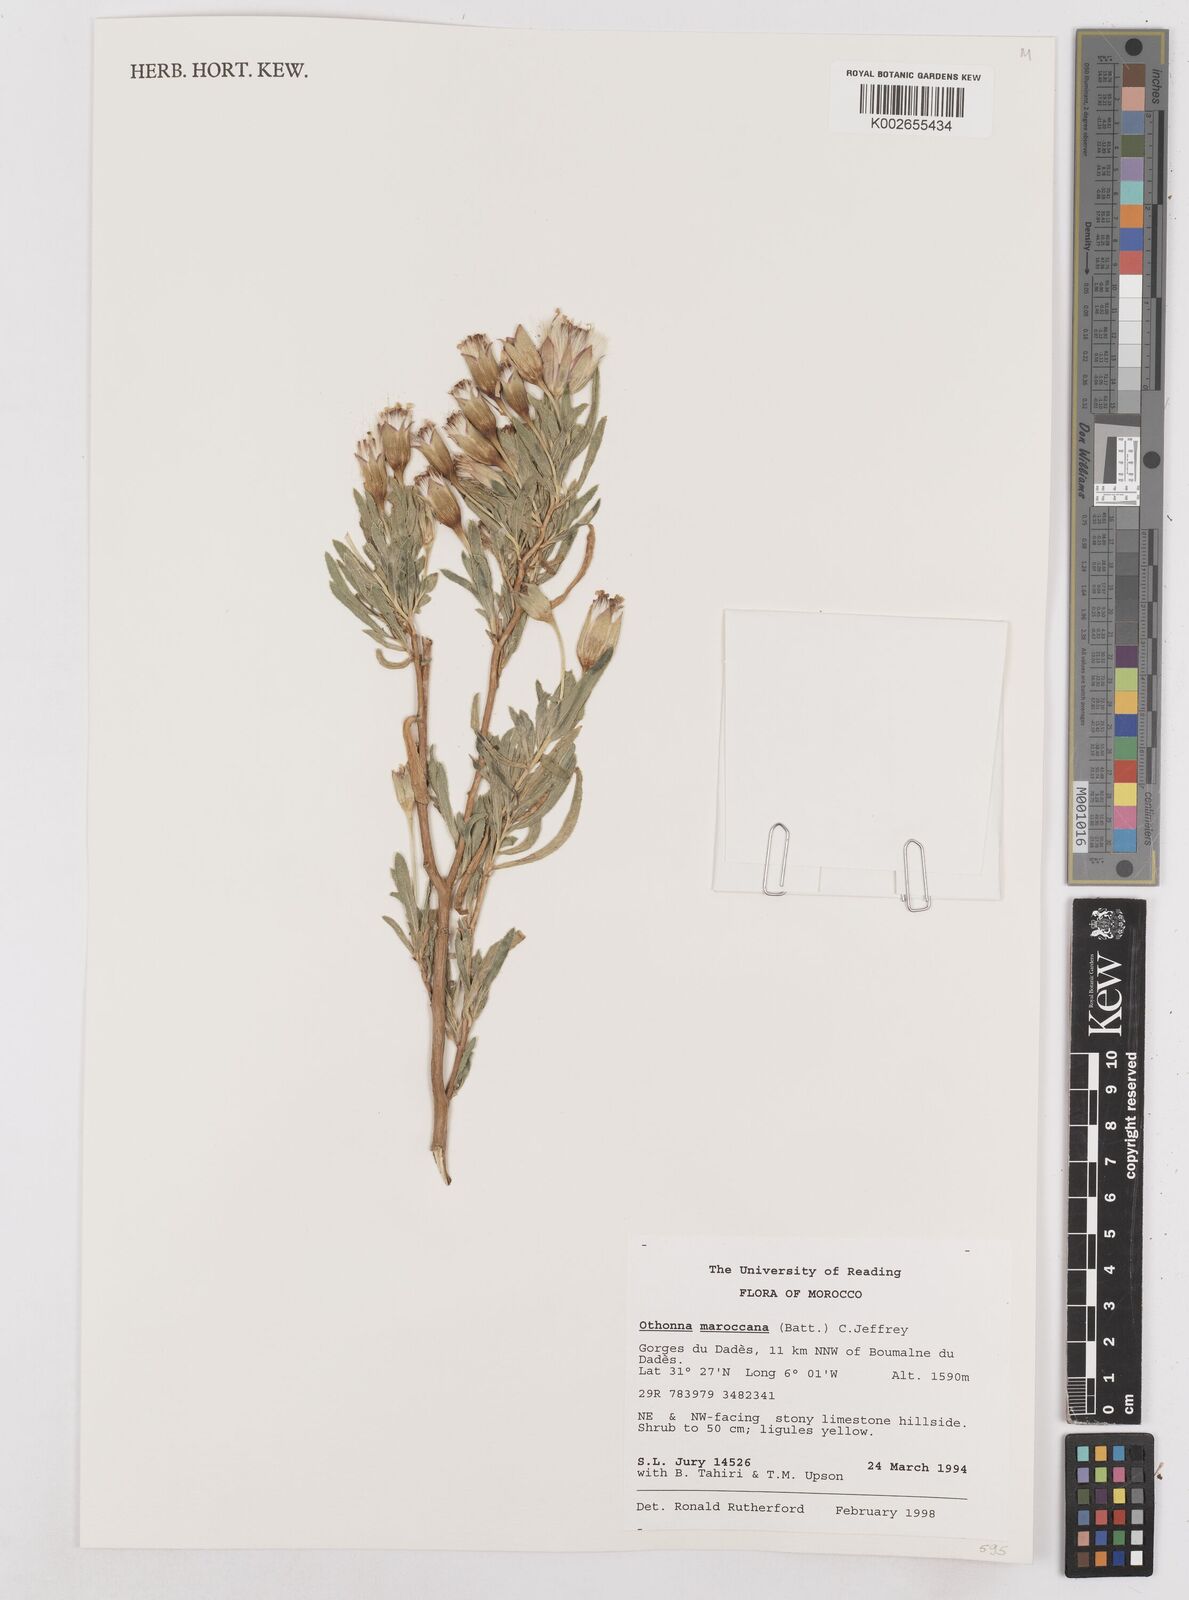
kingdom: Plantae
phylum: Tracheophyta
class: Magnoliopsida
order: Asterales
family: Asteraceae
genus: Hertia
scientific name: Hertia maroccana
